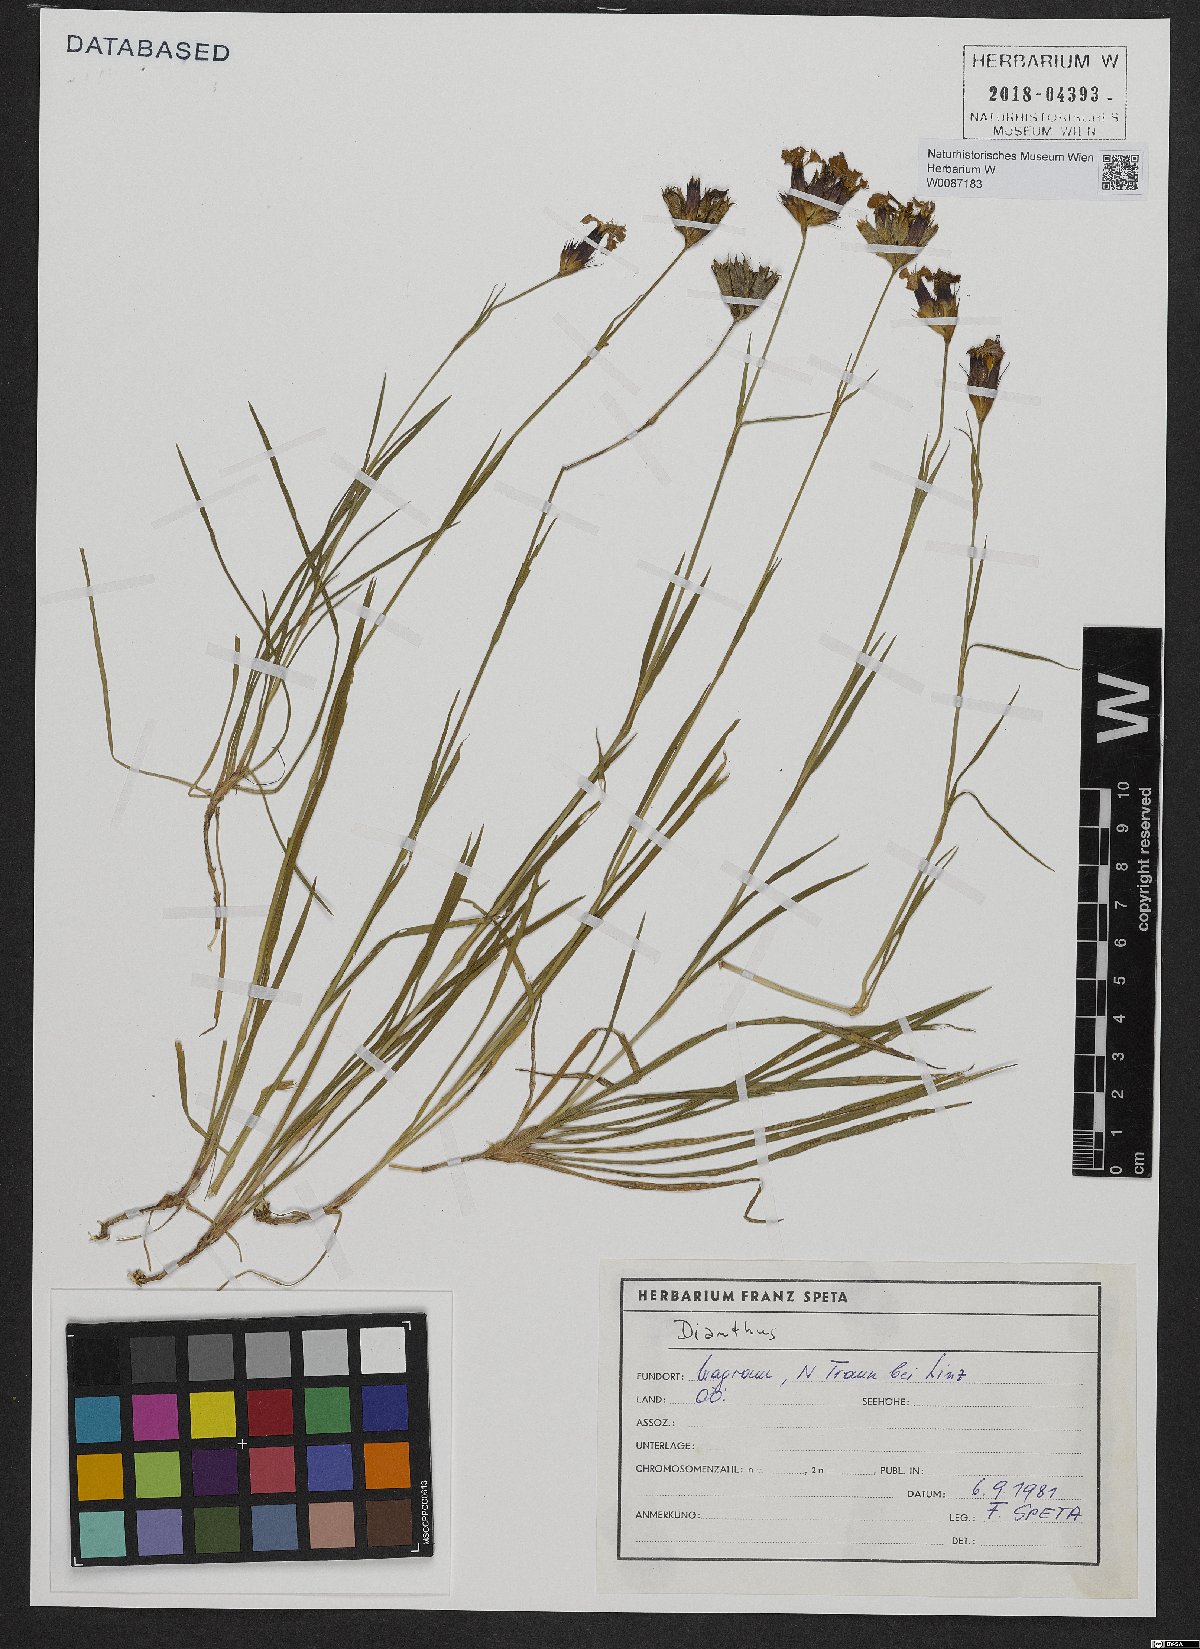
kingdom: Plantae
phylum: Tracheophyta
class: Magnoliopsida
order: Caryophyllales
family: Caryophyllaceae
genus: Dianthus
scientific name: Dianthus carthusianorum
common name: Carthusian pink
